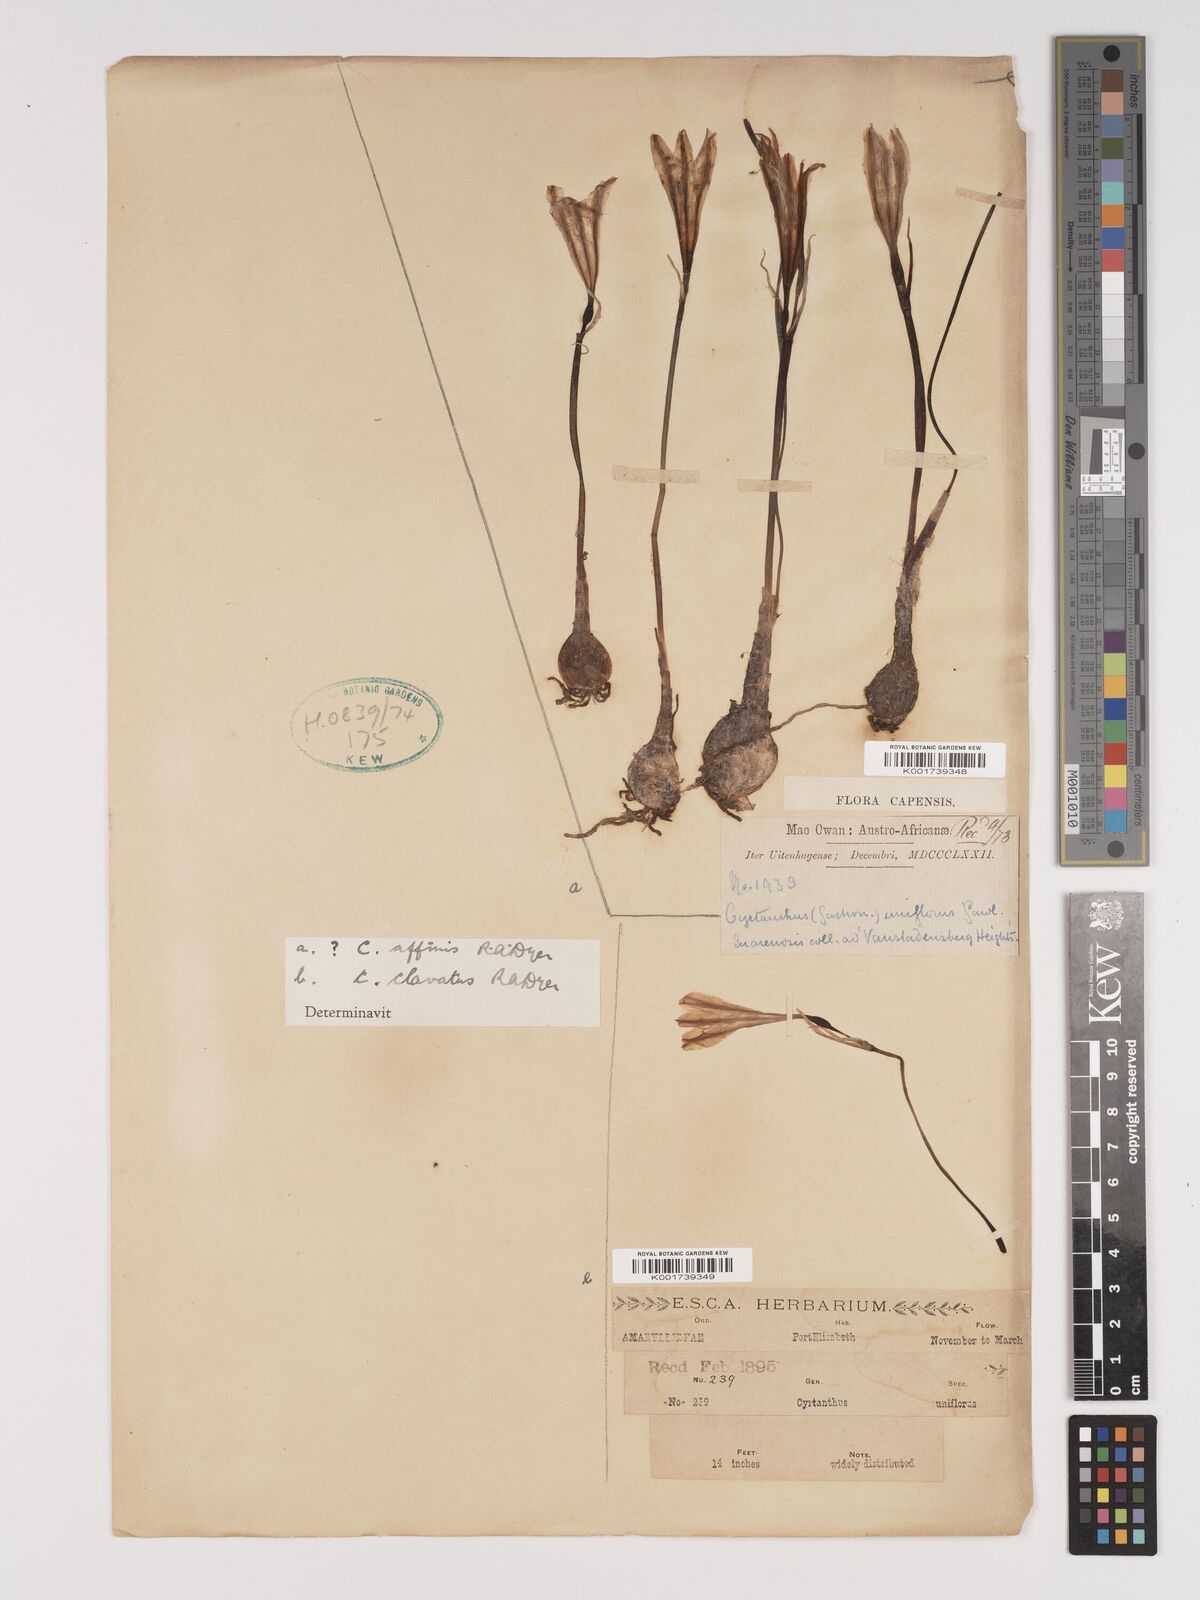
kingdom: Plantae
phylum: Tracheophyta
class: Liliopsida
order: Asparagales
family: Amaryllidaceae
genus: Cyrtanthus
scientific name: Cyrtanthus clavatus
